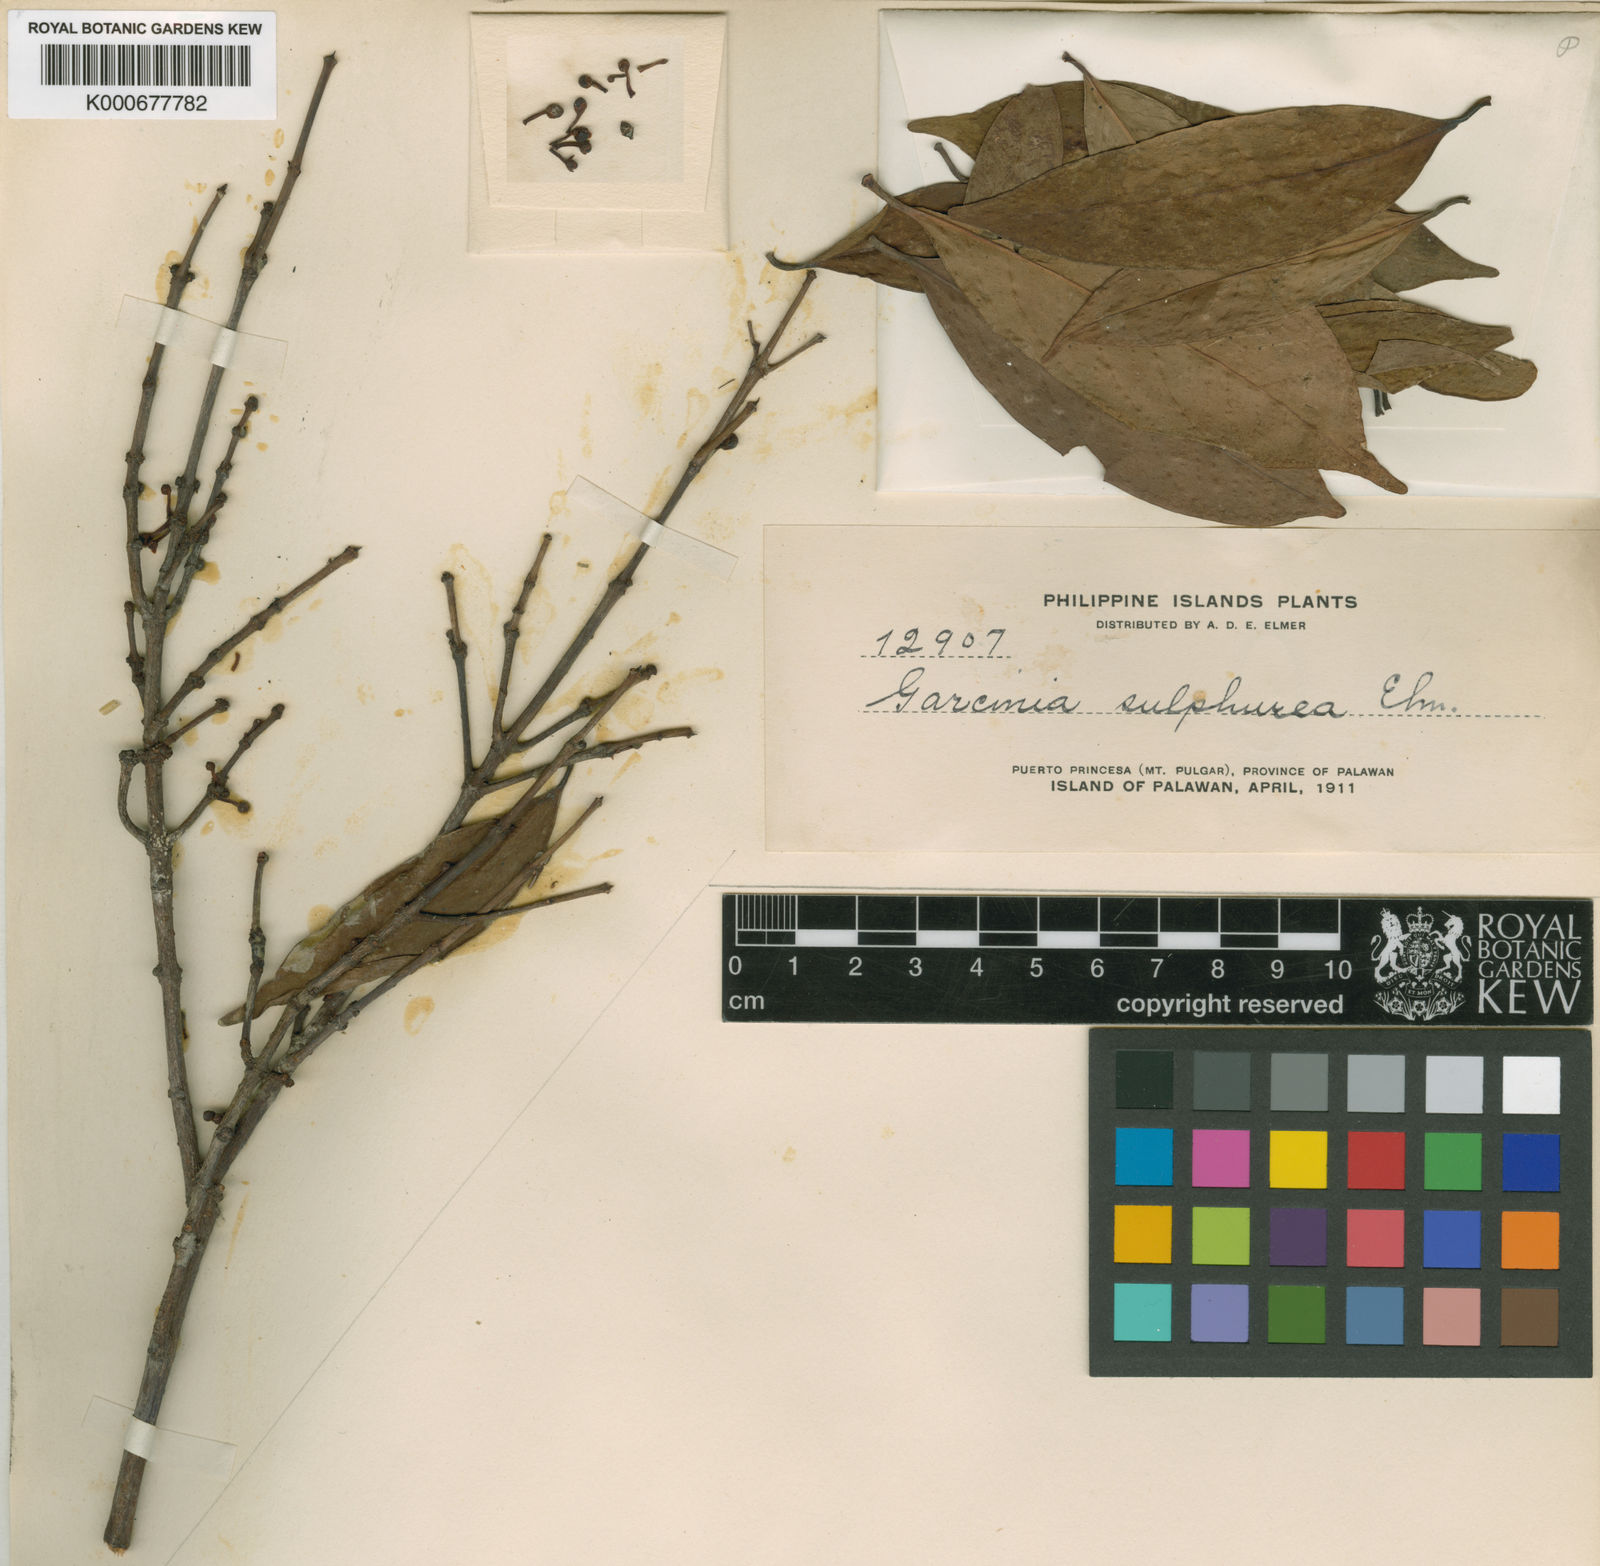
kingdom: Plantae
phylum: Tracheophyta
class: Magnoliopsida
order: Malpighiales
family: Clusiaceae
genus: Garcinia
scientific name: Garcinia sulphurea
